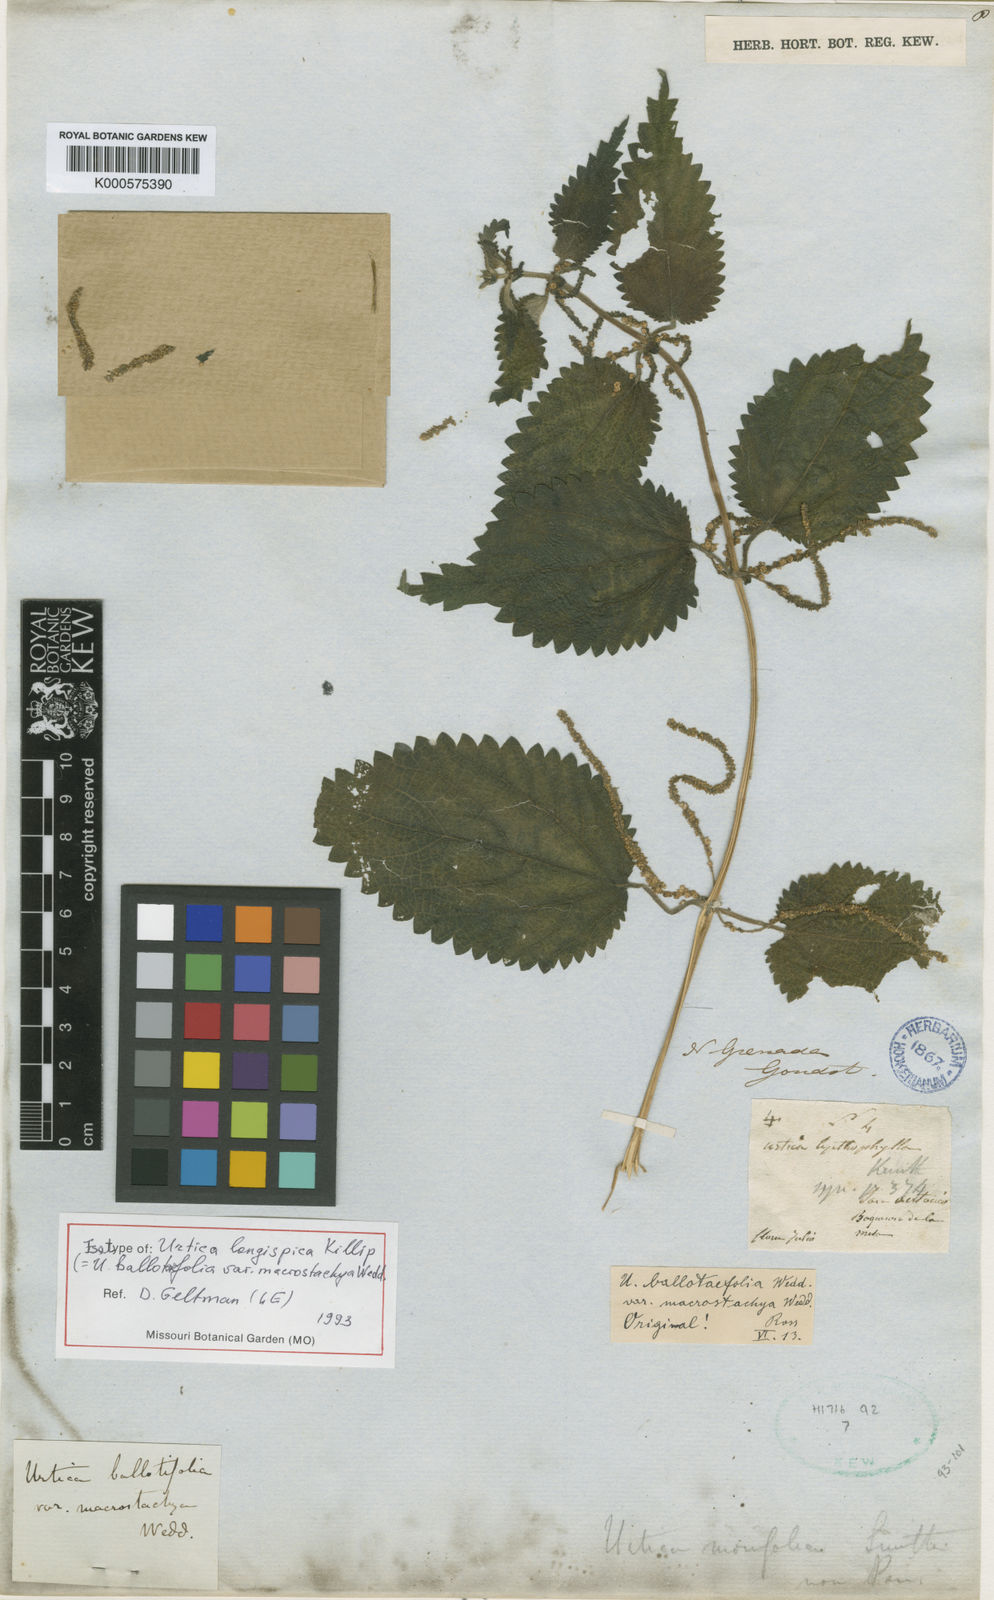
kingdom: Plantae
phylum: Tracheophyta
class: Magnoliopsida
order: Rosales
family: Urticaceae
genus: Urtica
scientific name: Urtica leptophylla
